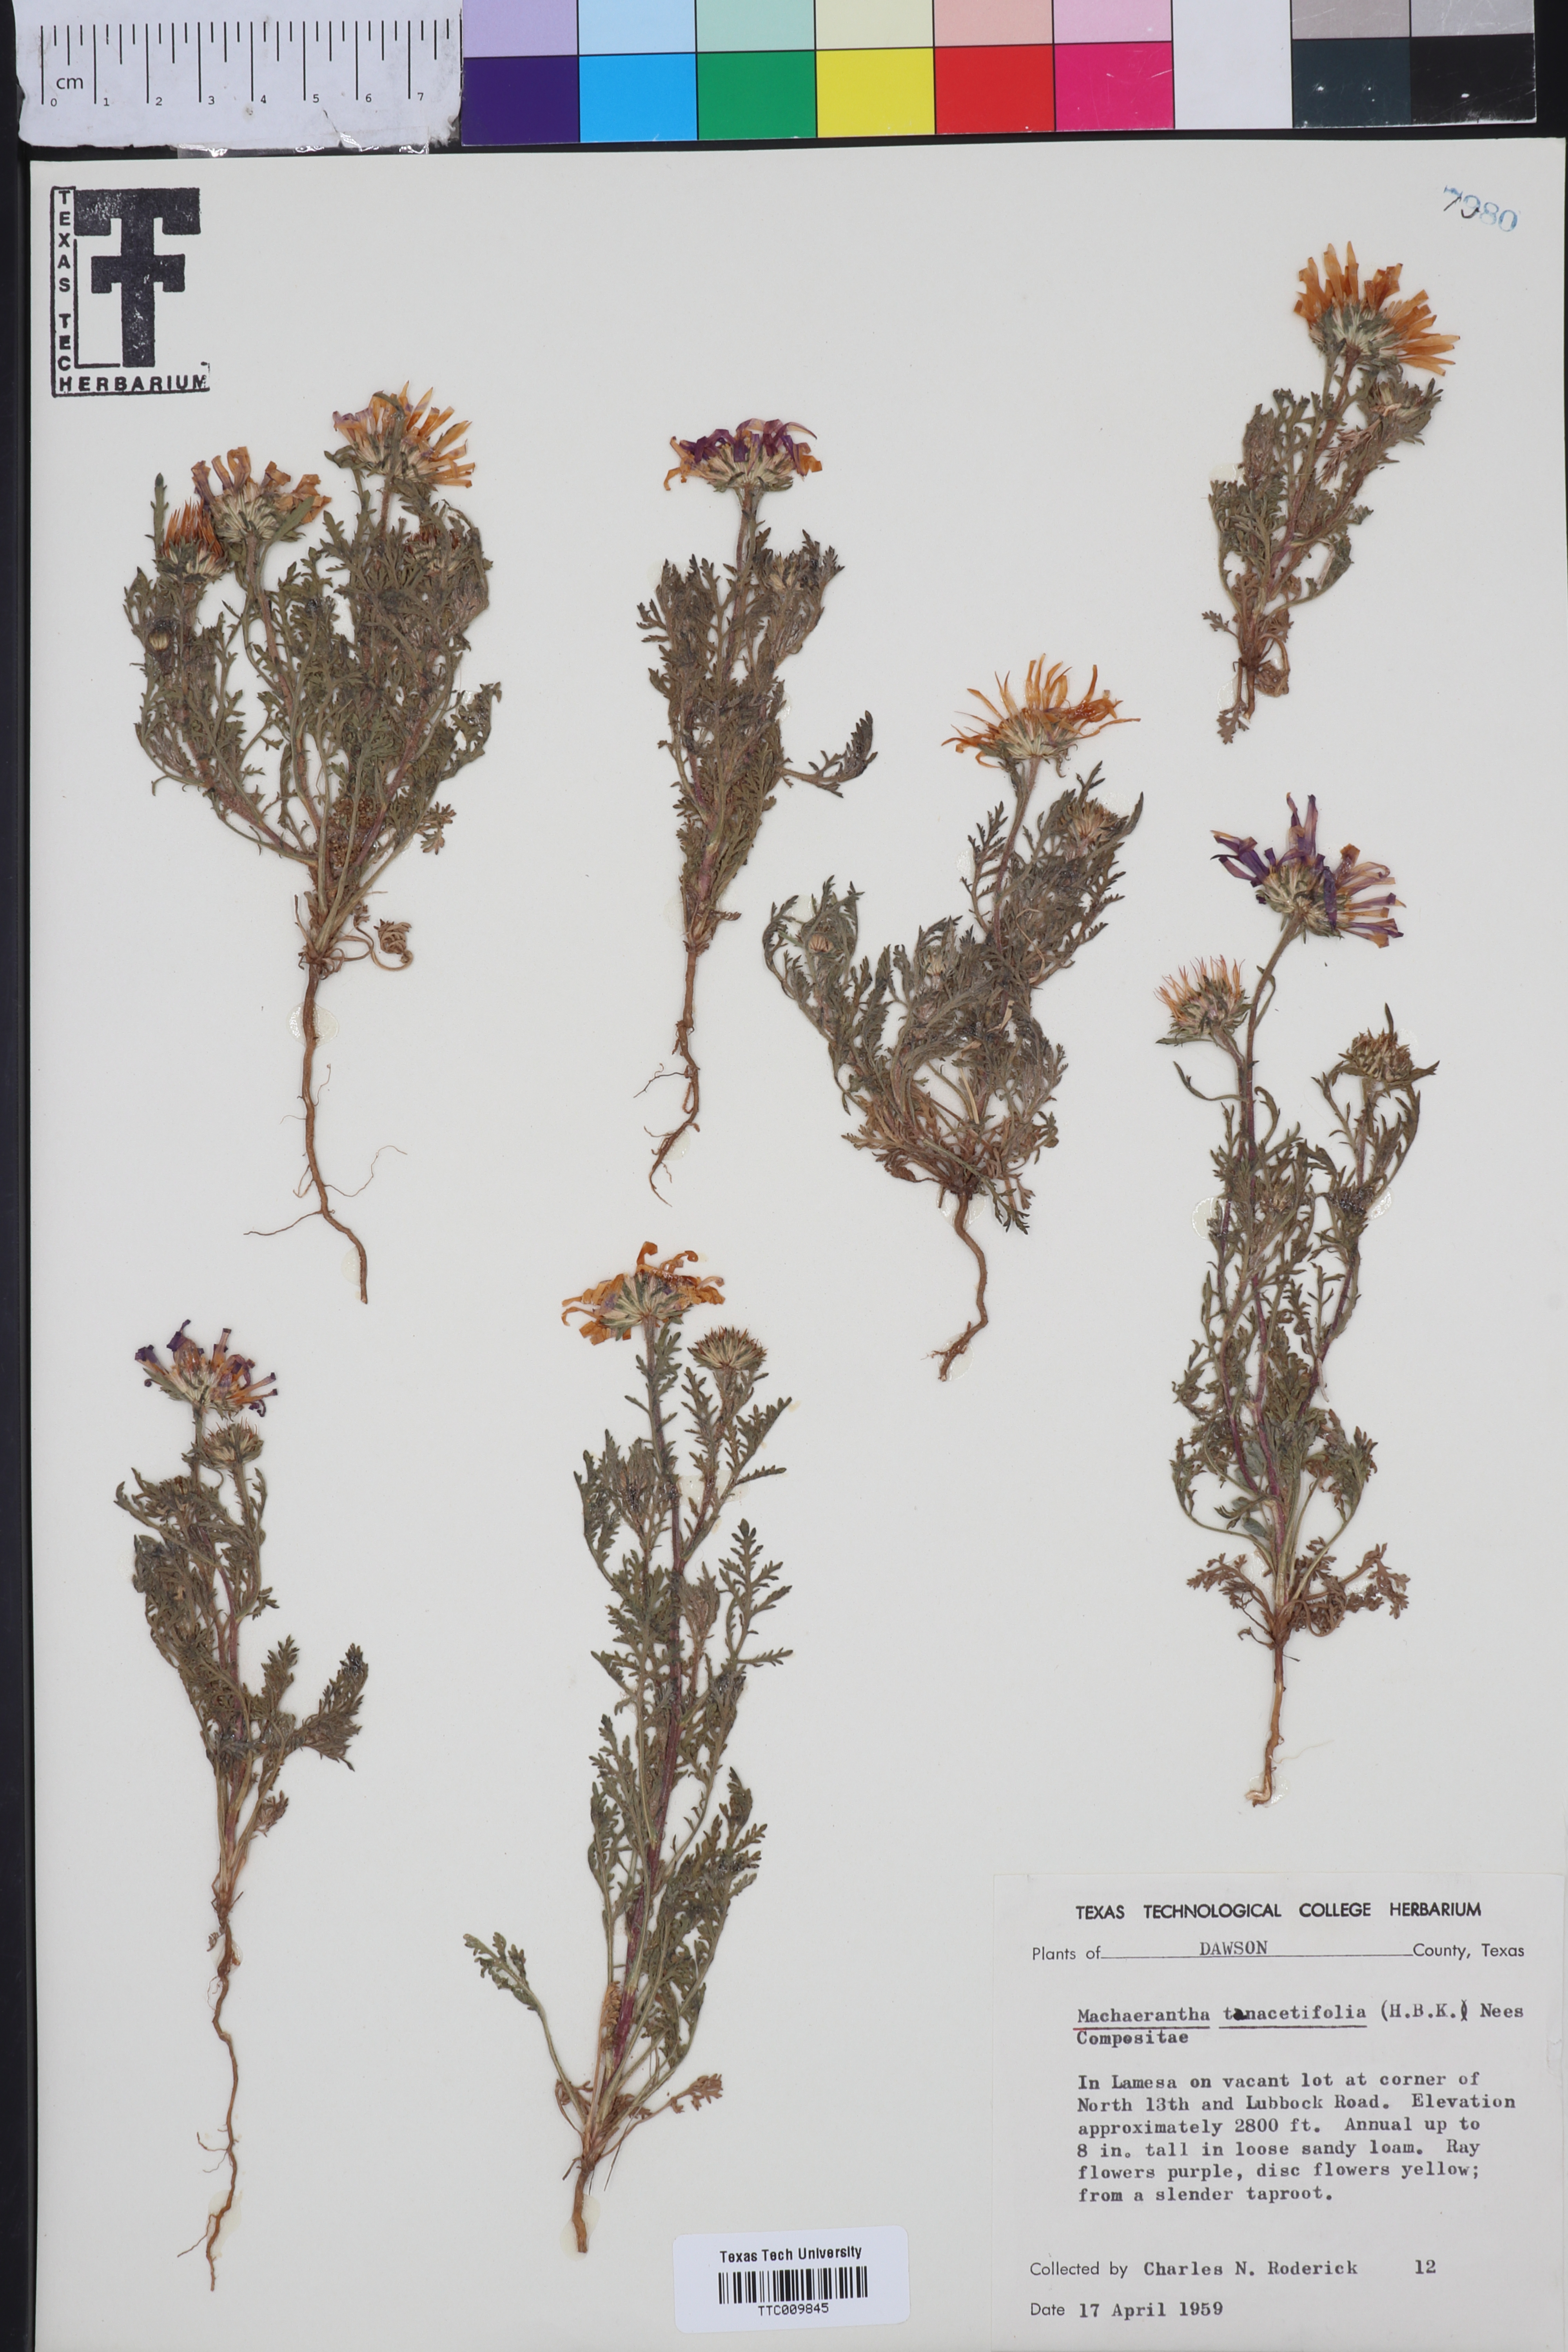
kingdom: Plantae
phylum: Tracheophyta
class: Magnoliopsida
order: Asterales
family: Asteraceae
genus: Machaeranthera
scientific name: Machaeranthera tanacetifolia
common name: Tansy-aster
